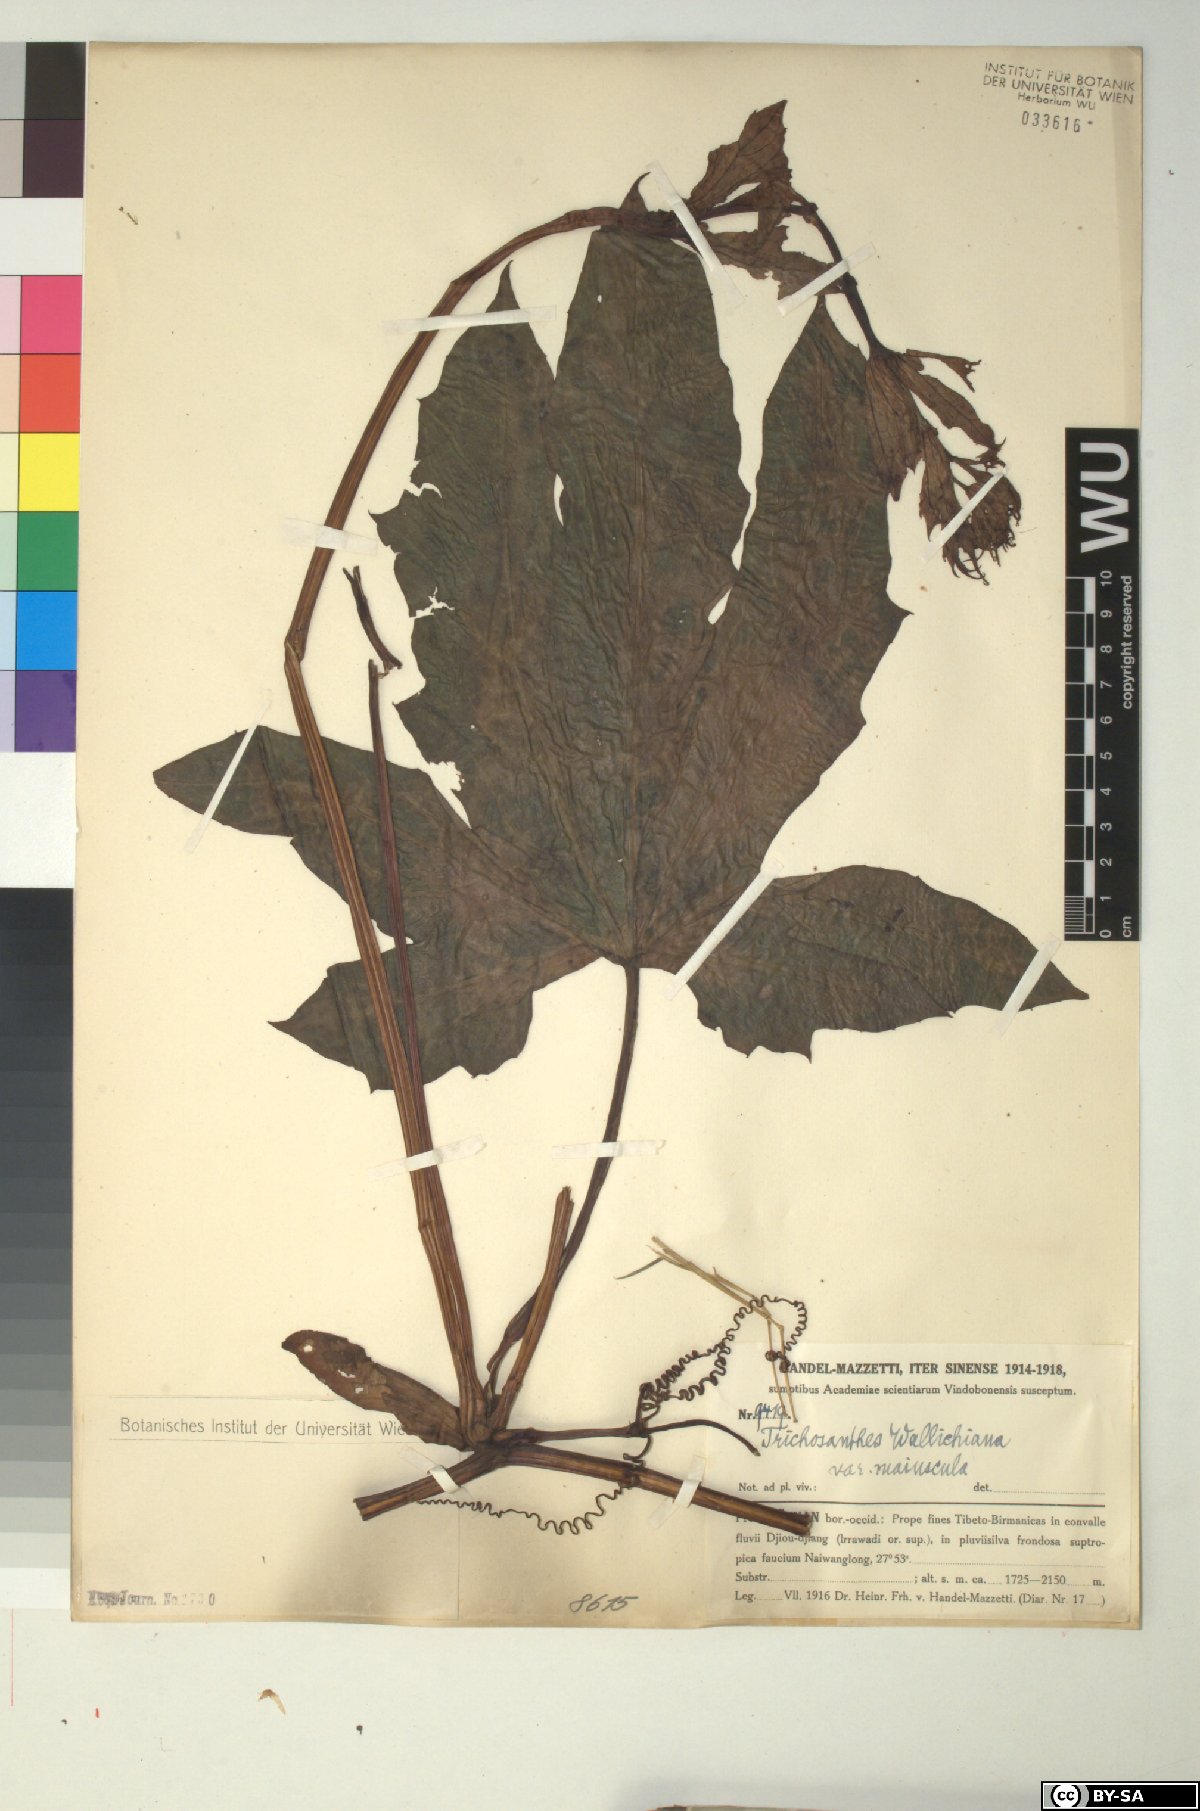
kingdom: Plantae
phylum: Tracheophyta
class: Magnoliopsida
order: Cucurbitales
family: Cucurbitaceae
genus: Trichosanthes
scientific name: Trichosanthes wallichiana
